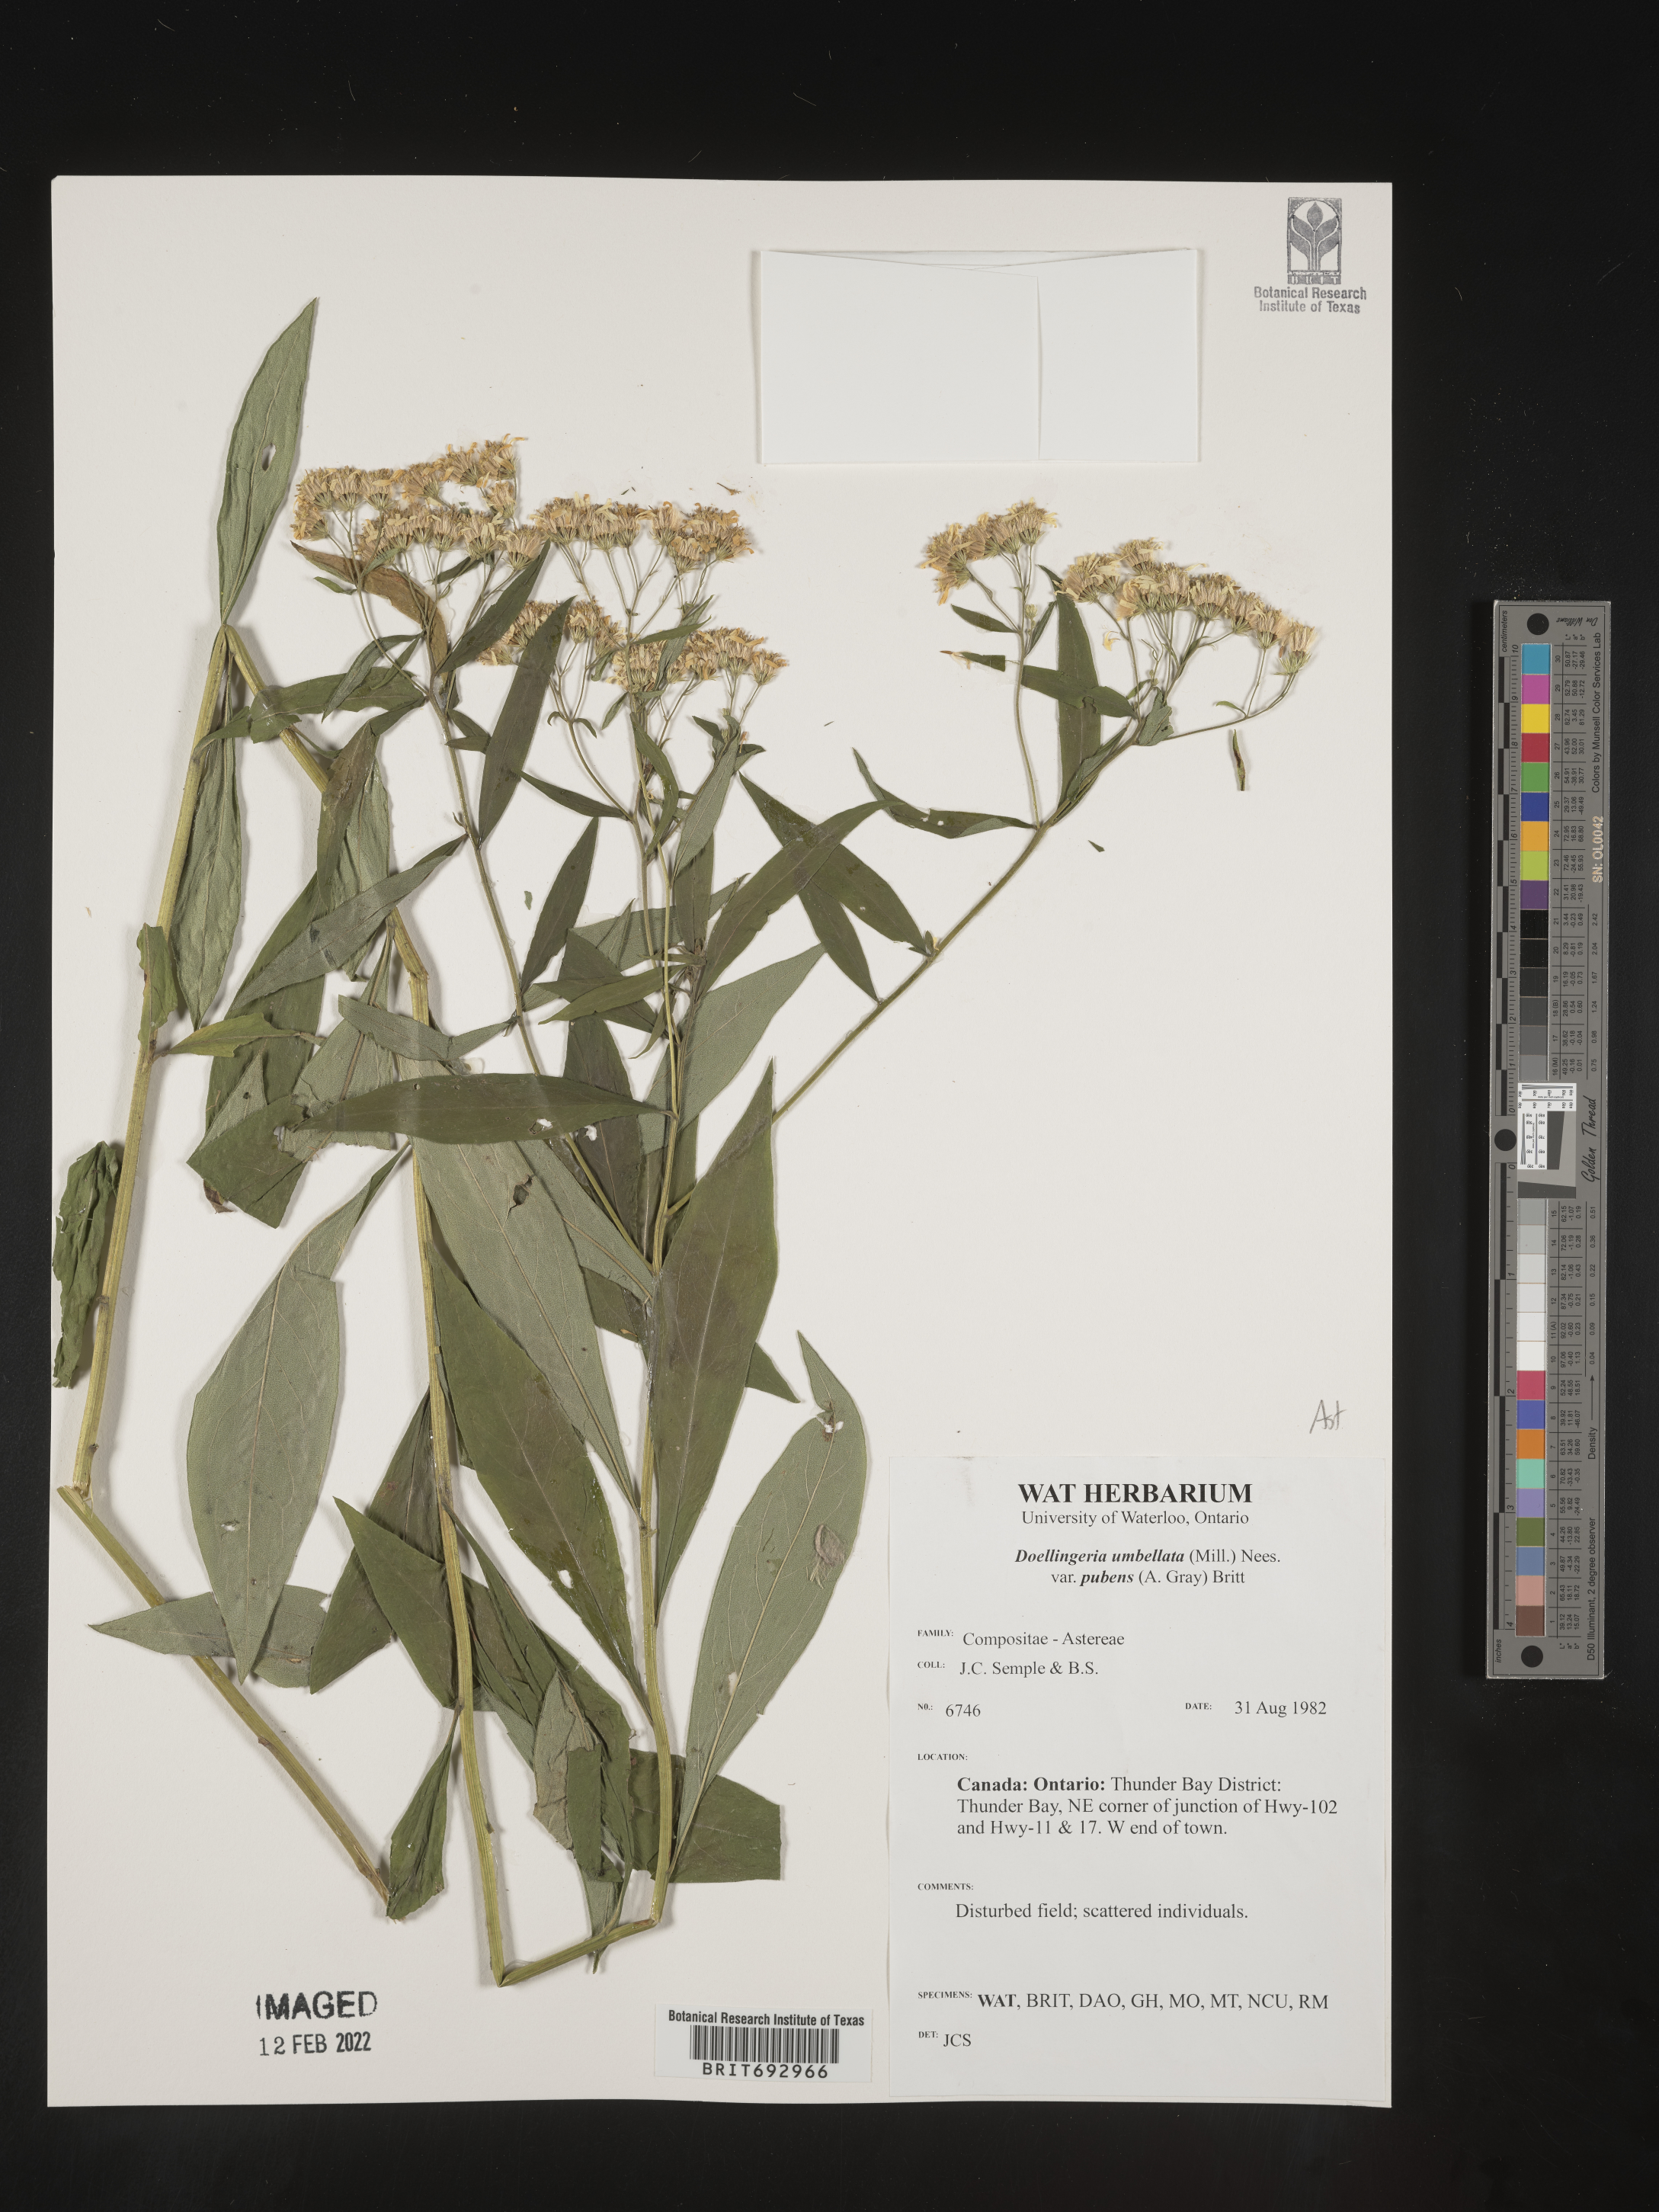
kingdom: Plantae
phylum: Tracheophyta
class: Magnoliopsida
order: Asterales
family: Asteraceae
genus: Doellingeria
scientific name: Doellingeria umbellata
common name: Flat-top white aster
